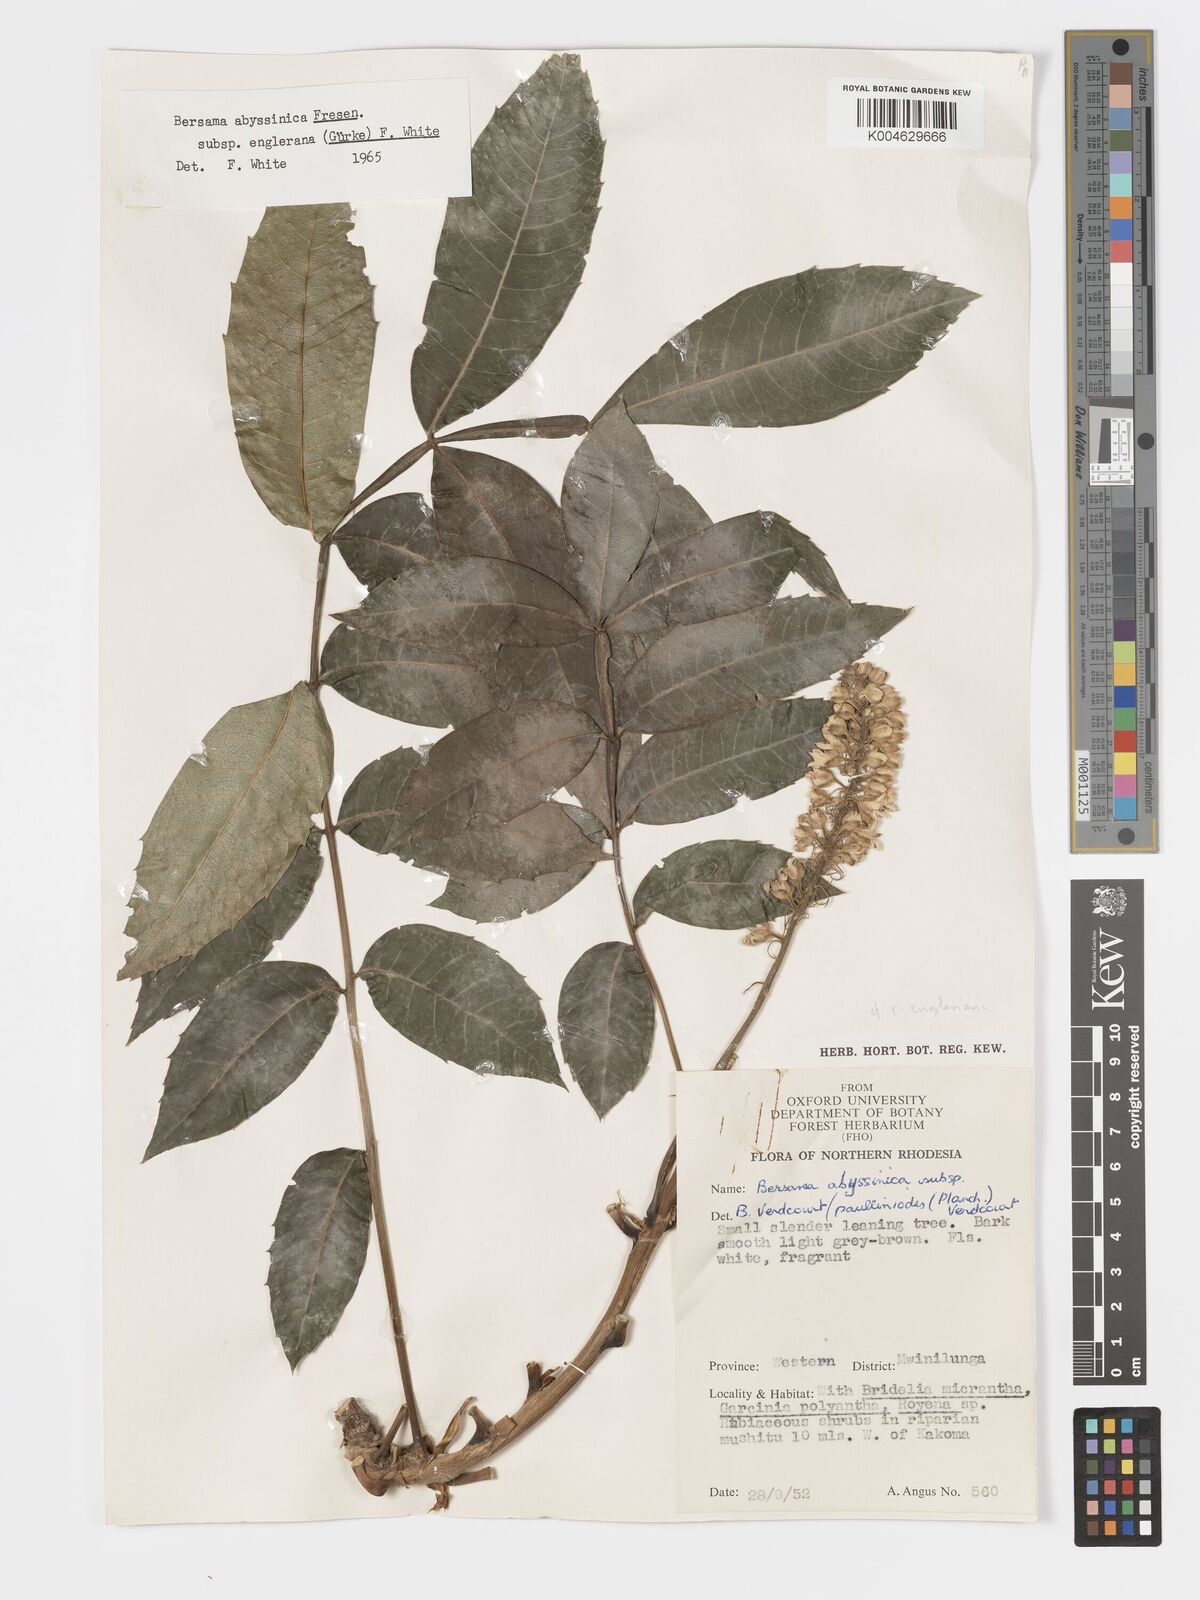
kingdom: Plantae
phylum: Tracheophyta
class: Magnoliopsida
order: Geraniales
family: Melianthaceae
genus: Bersama
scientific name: Bersama abyssinica
